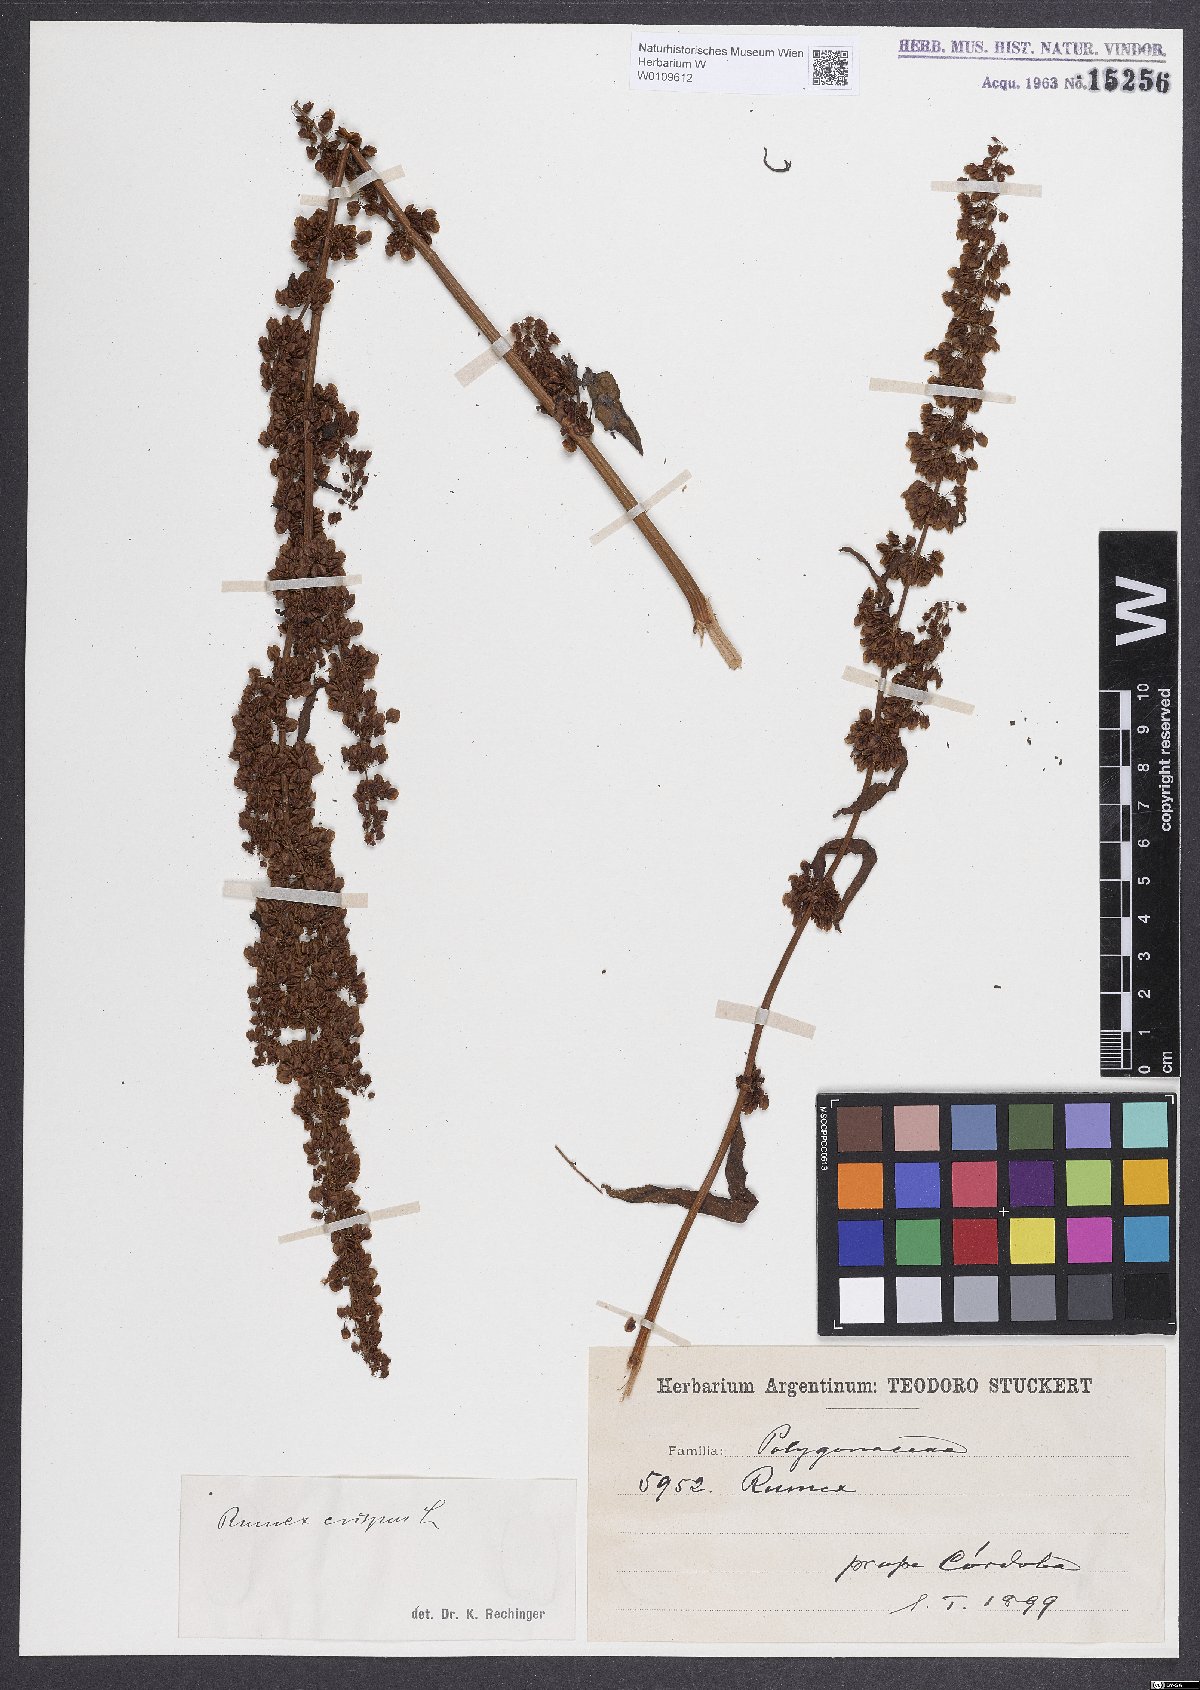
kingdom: Plantae
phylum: Tracheophyta
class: Magnoliopsida
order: Caryophyllales
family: Polygonaceae
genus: Rumex
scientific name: Rumex crispus
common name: Curled dock
